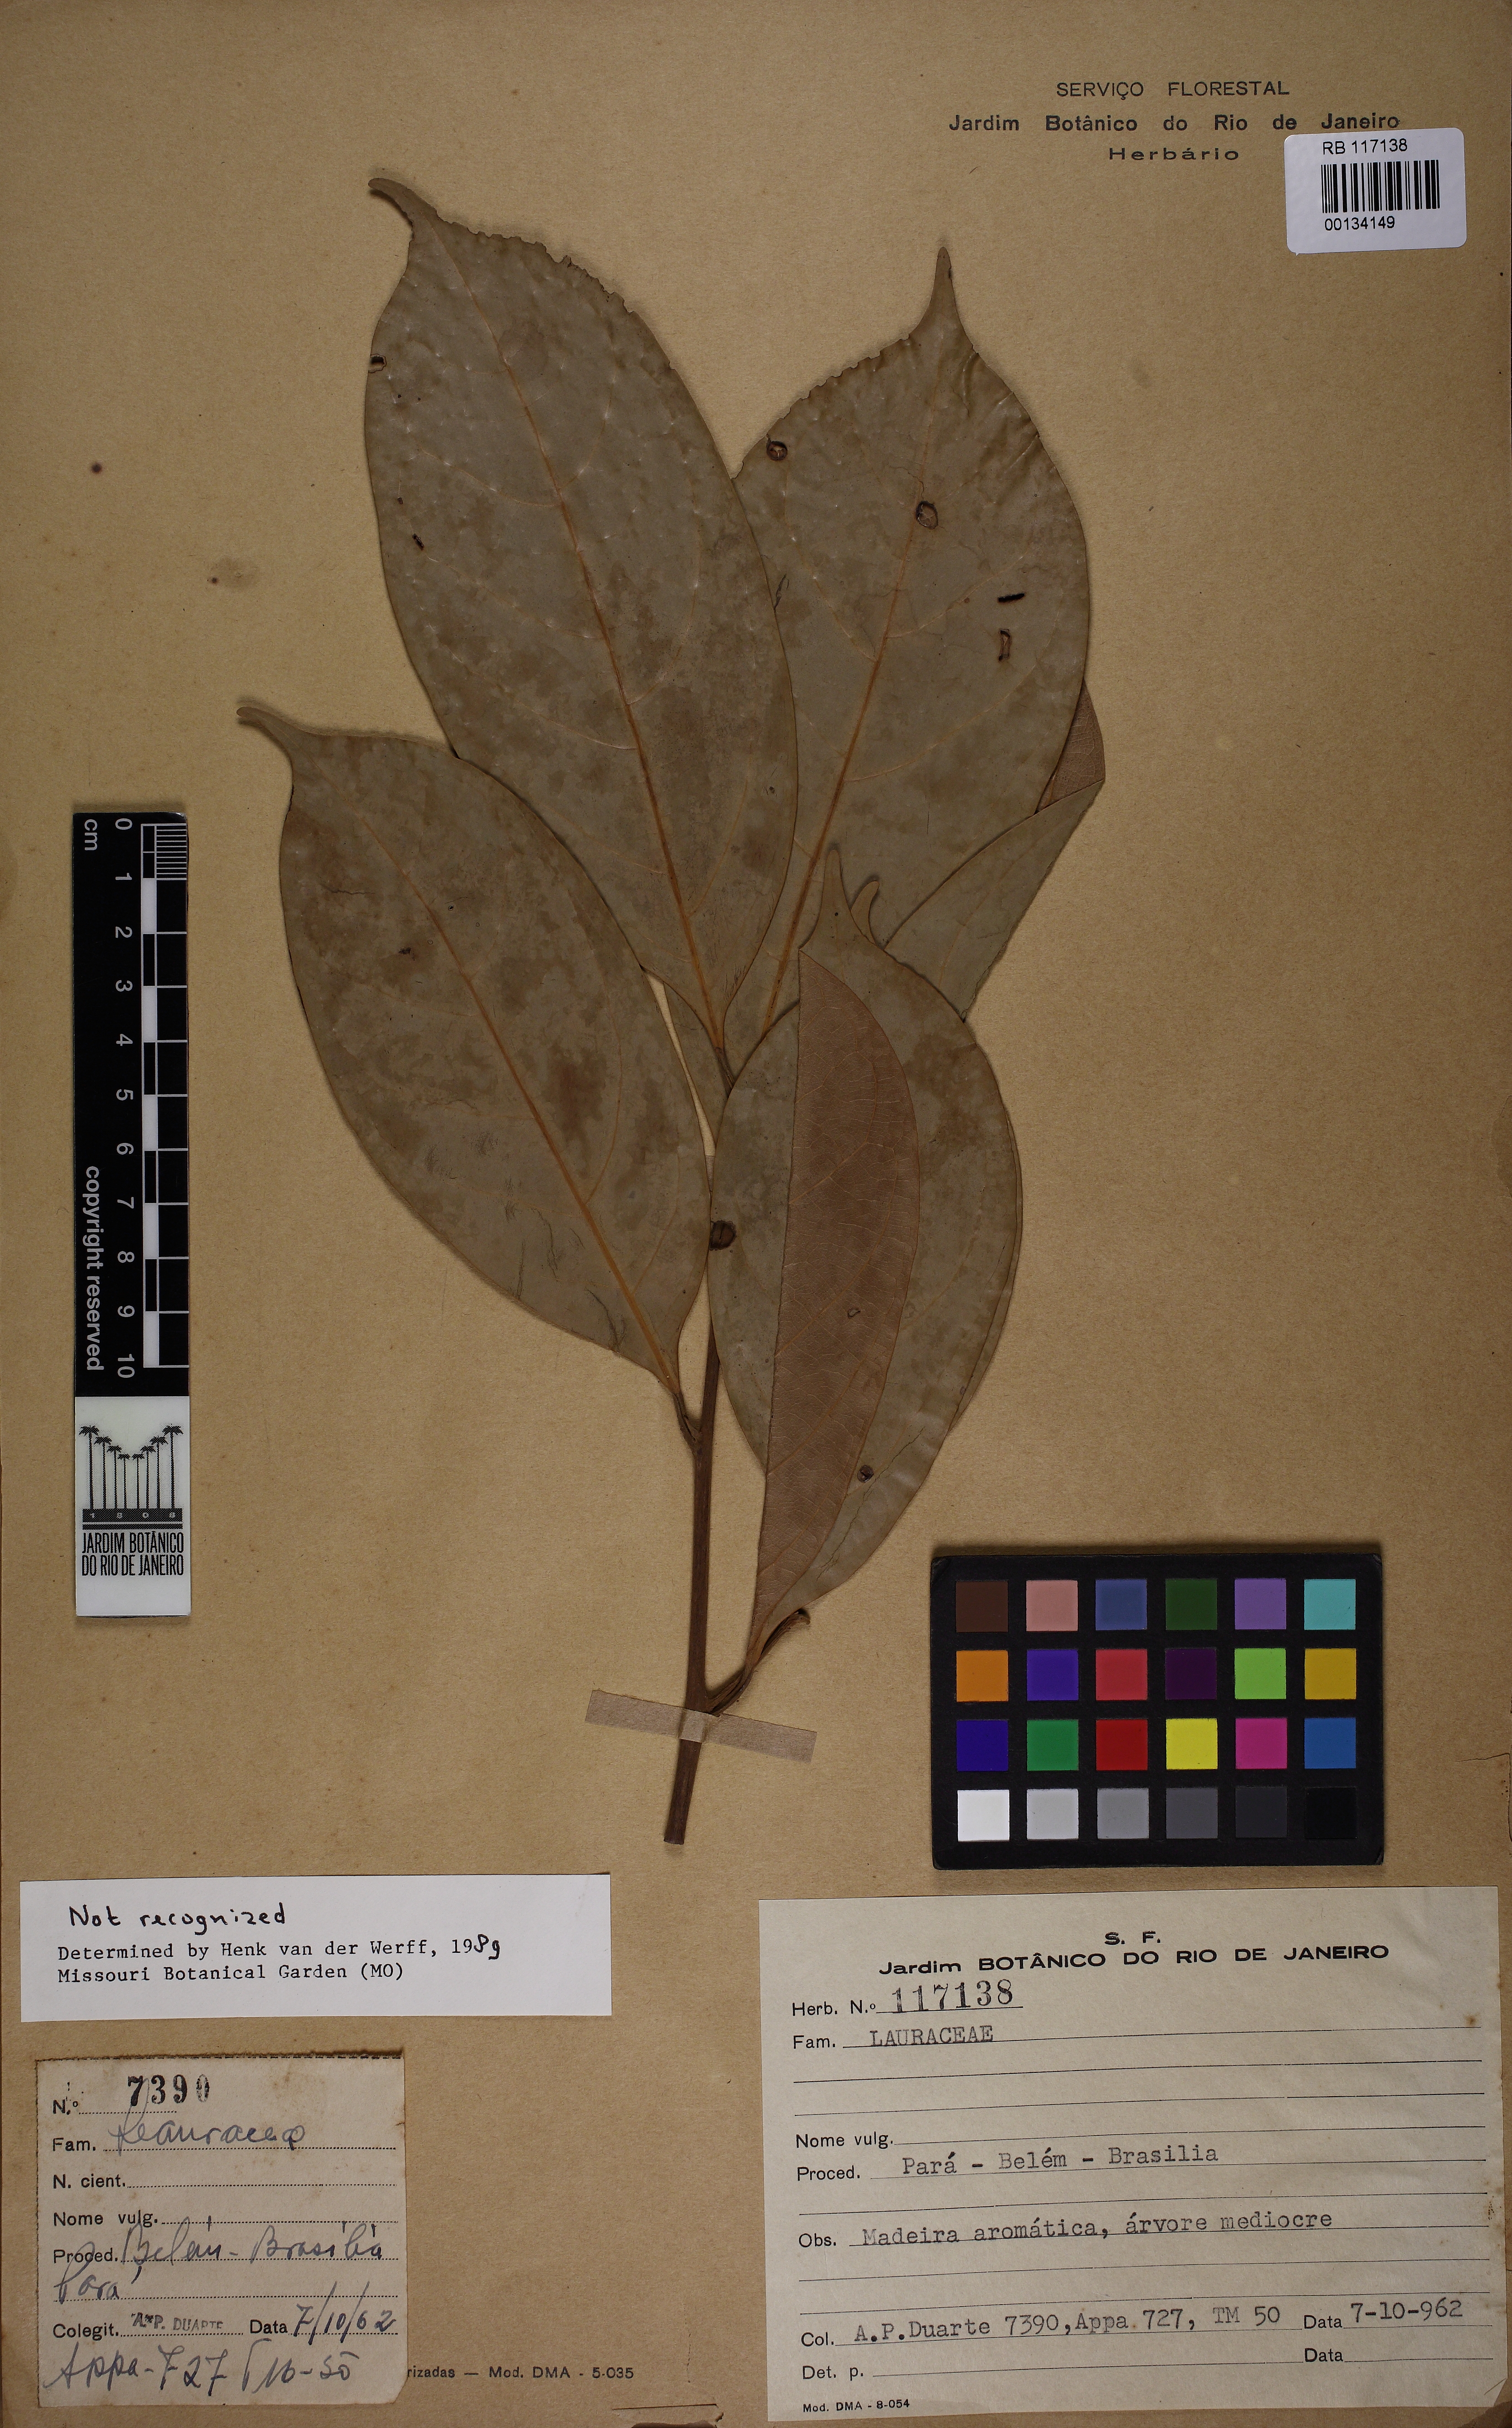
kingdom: Plantae
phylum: Tracheophyta
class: Magnoliopsida
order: Laurales
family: Lauraceae
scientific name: Lauraceae
